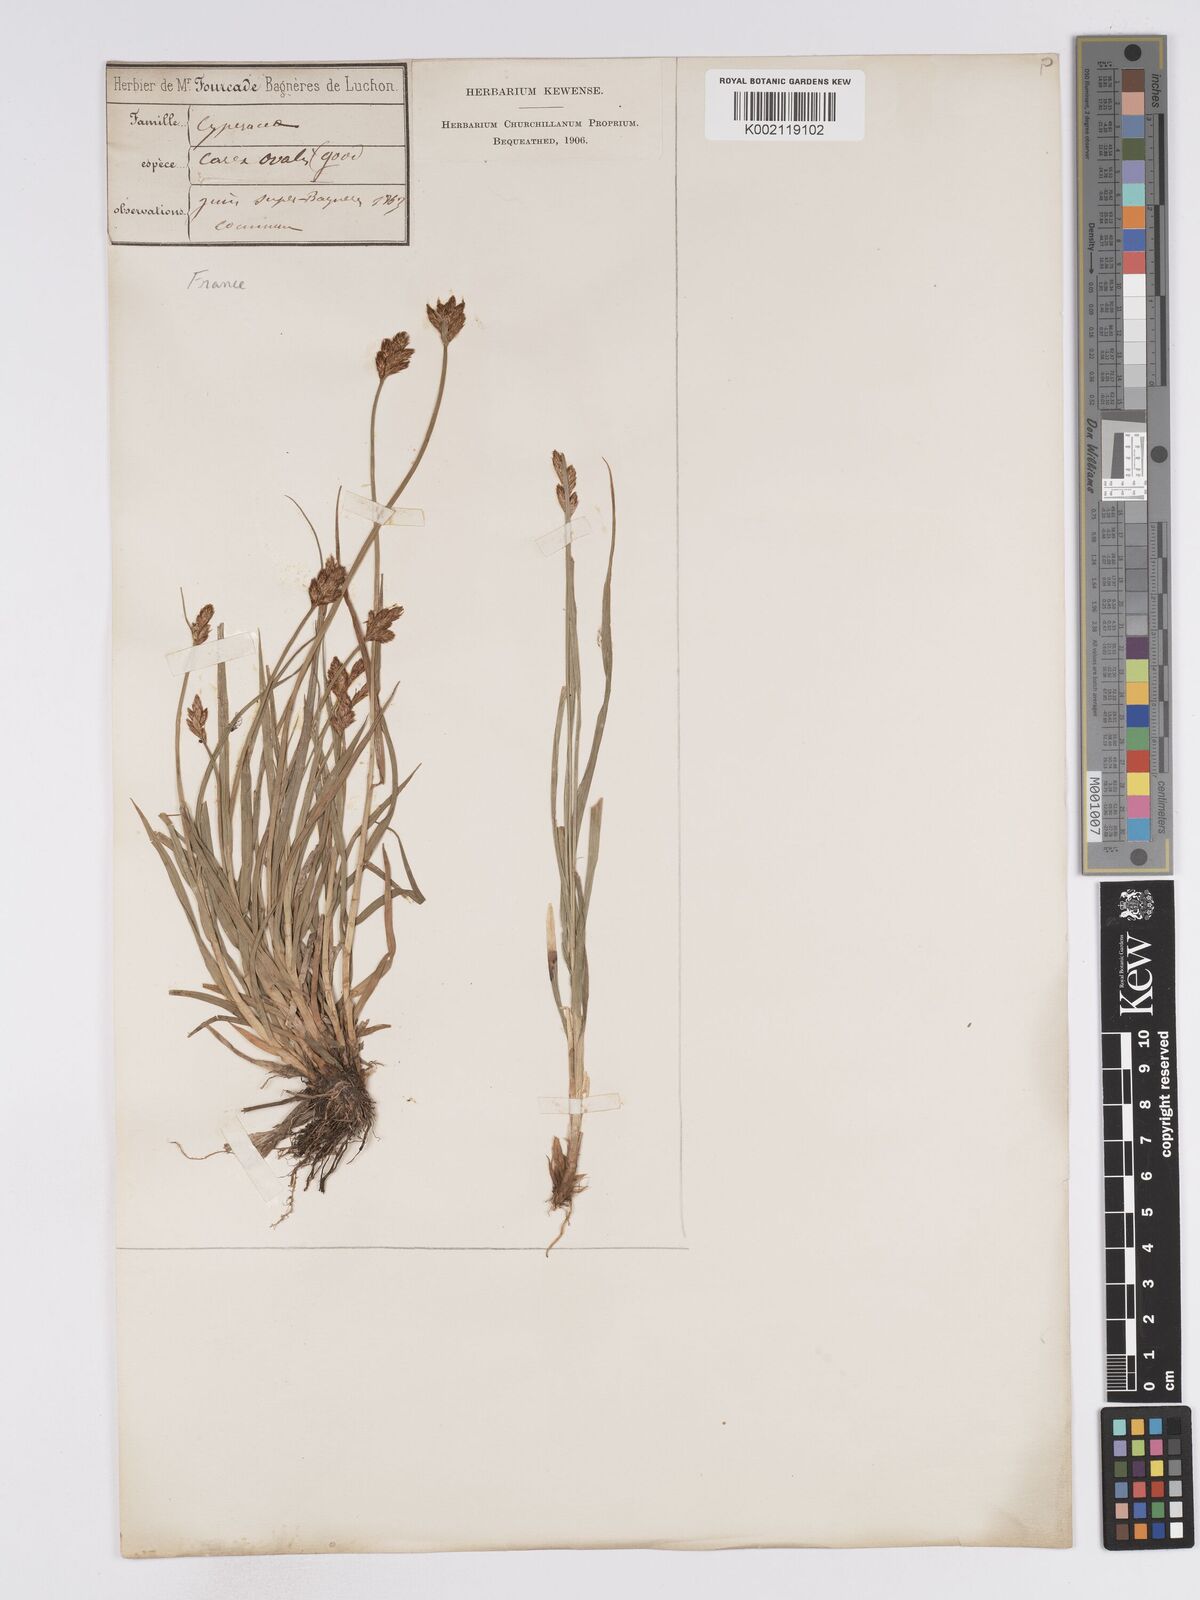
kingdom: Plantae
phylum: Tracheophyta
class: Liliopsida
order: Poales
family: Cyperaceae
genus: Carex
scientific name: Carex leporina
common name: Oval sedge
